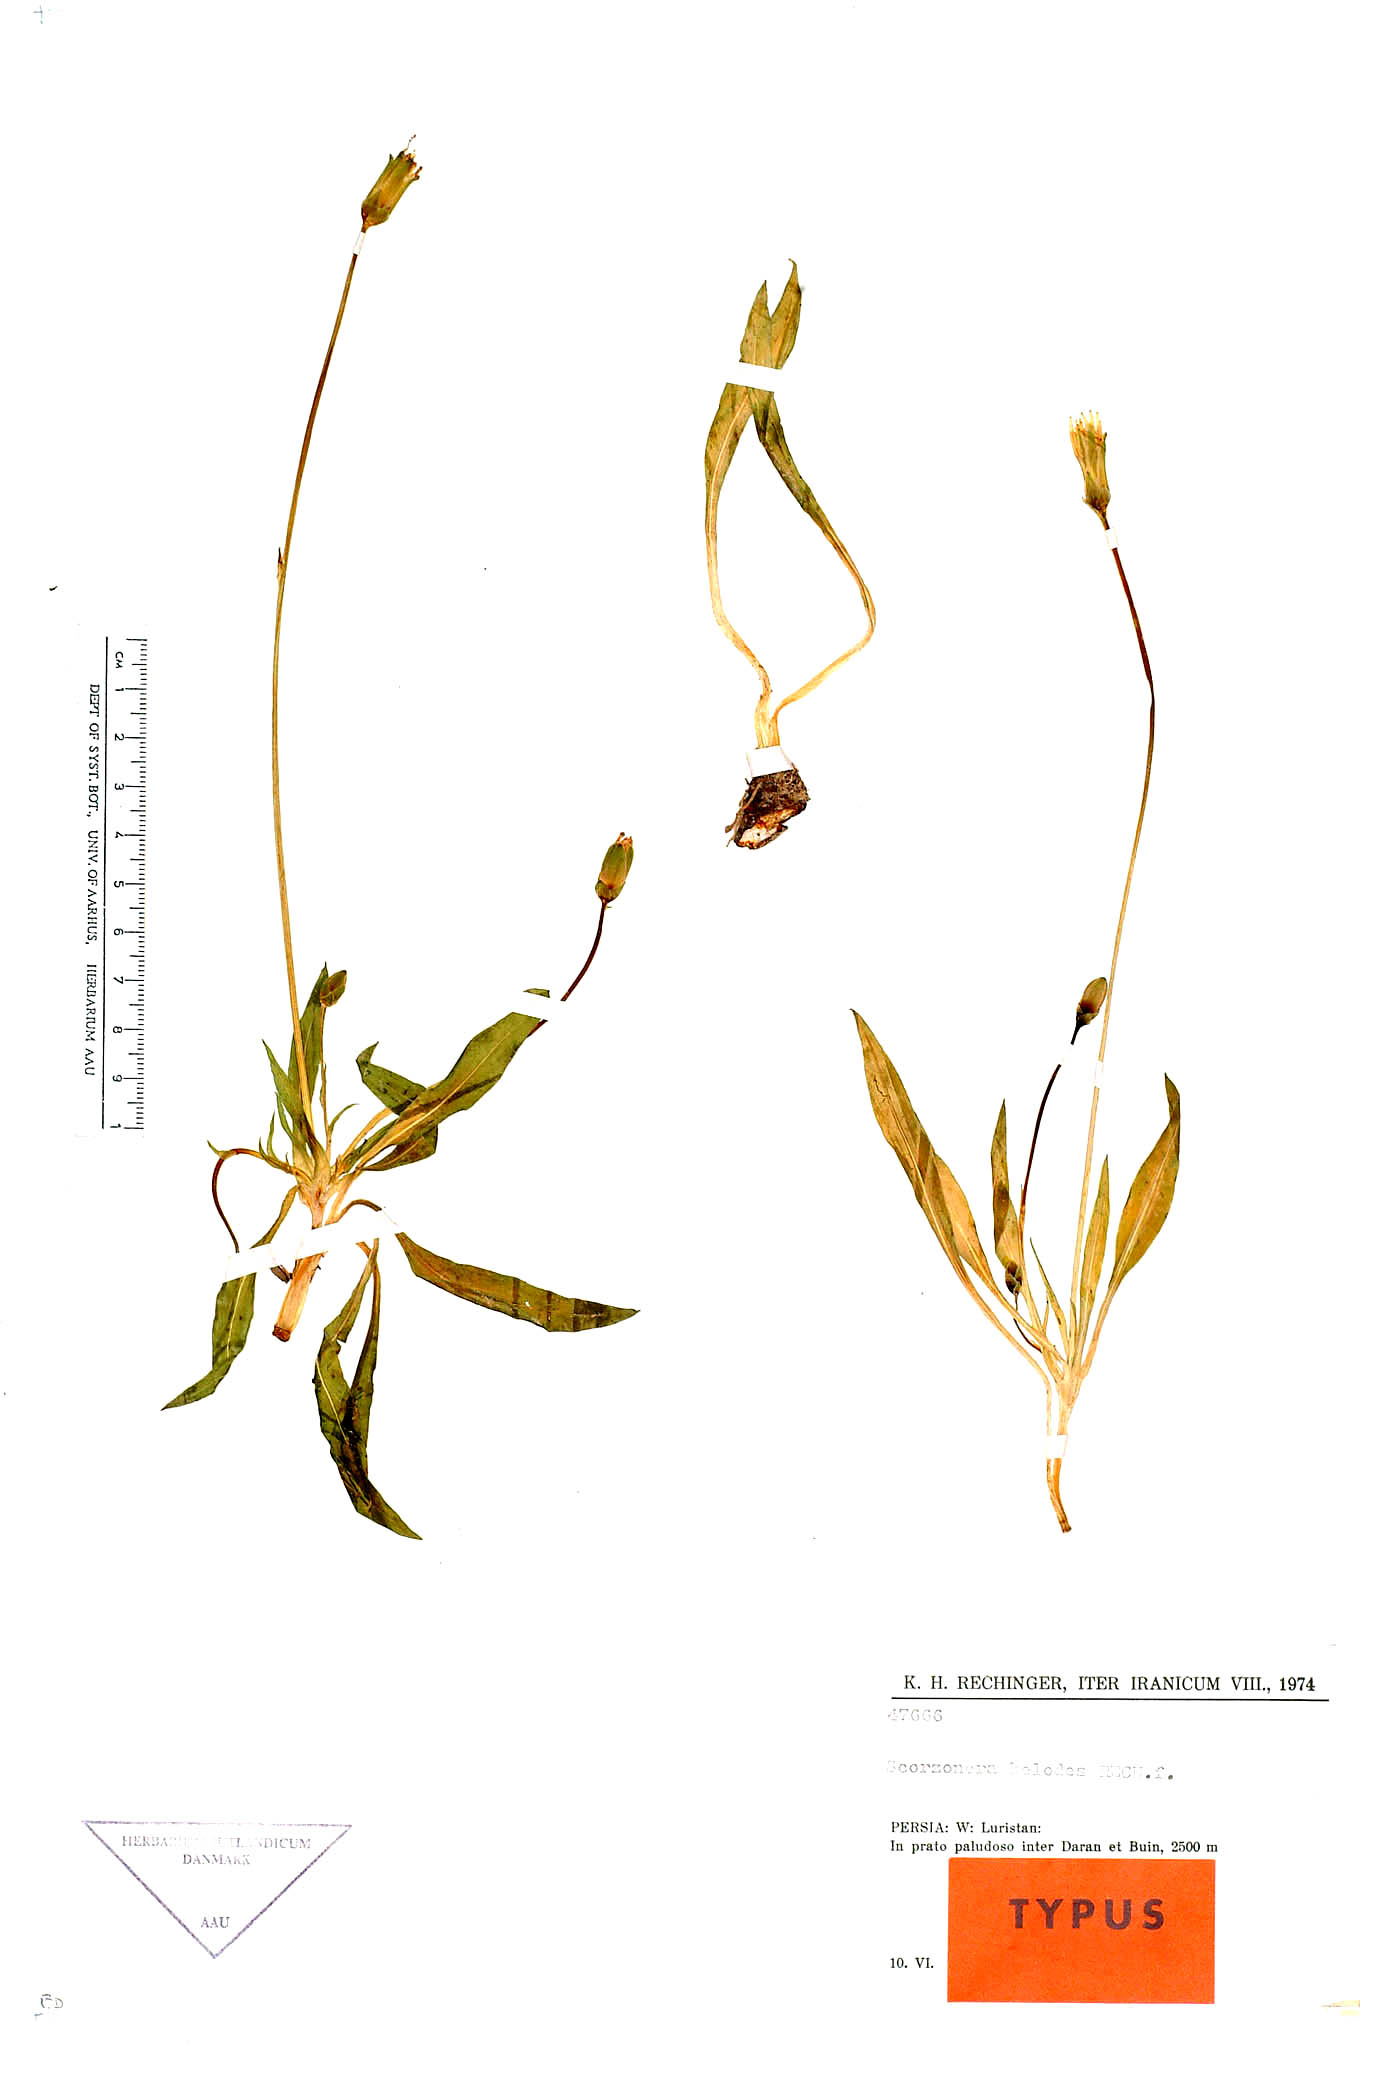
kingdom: Plantae
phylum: Tracheophyta
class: Magnoliopsida
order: Asterales
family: Asteraceae
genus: Scorzonera
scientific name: Scorzonera helodes
